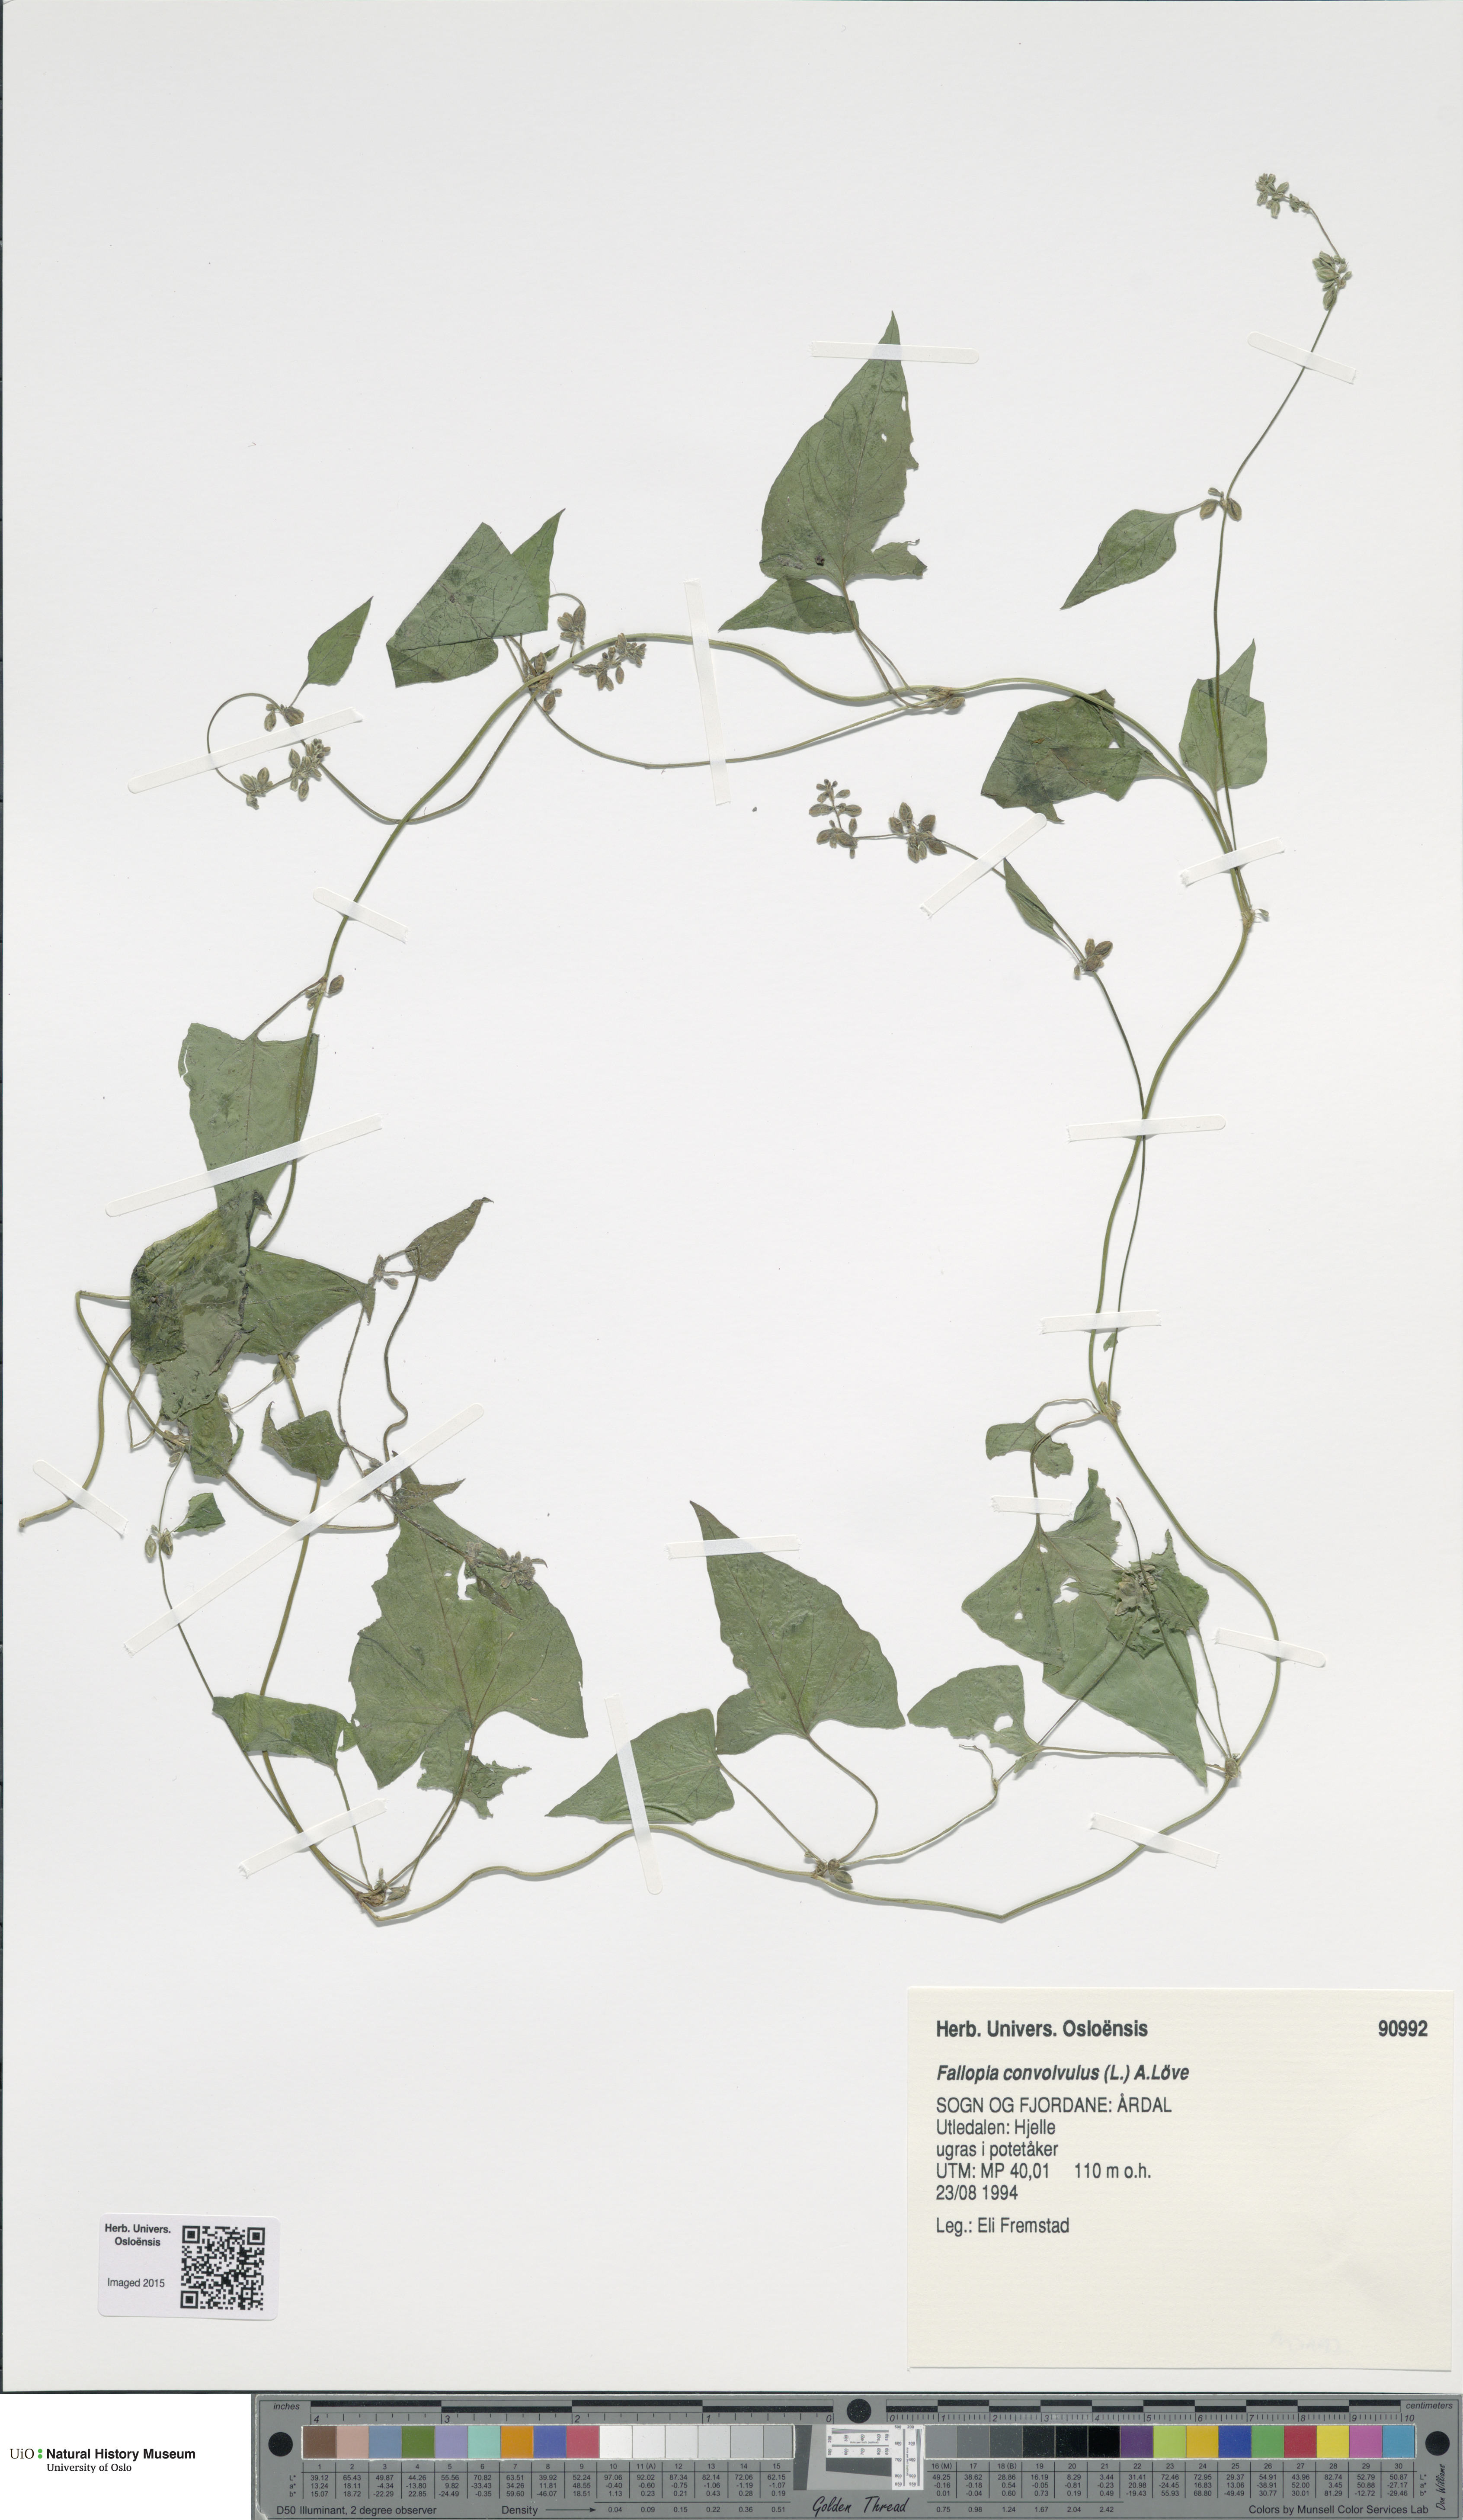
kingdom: Plantae
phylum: Tracheophyta
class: Magnoliopsida
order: Caryophyllales
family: Polygonaceae
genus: Fallopia
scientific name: Fallopia convolvulus
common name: Black bindweed
